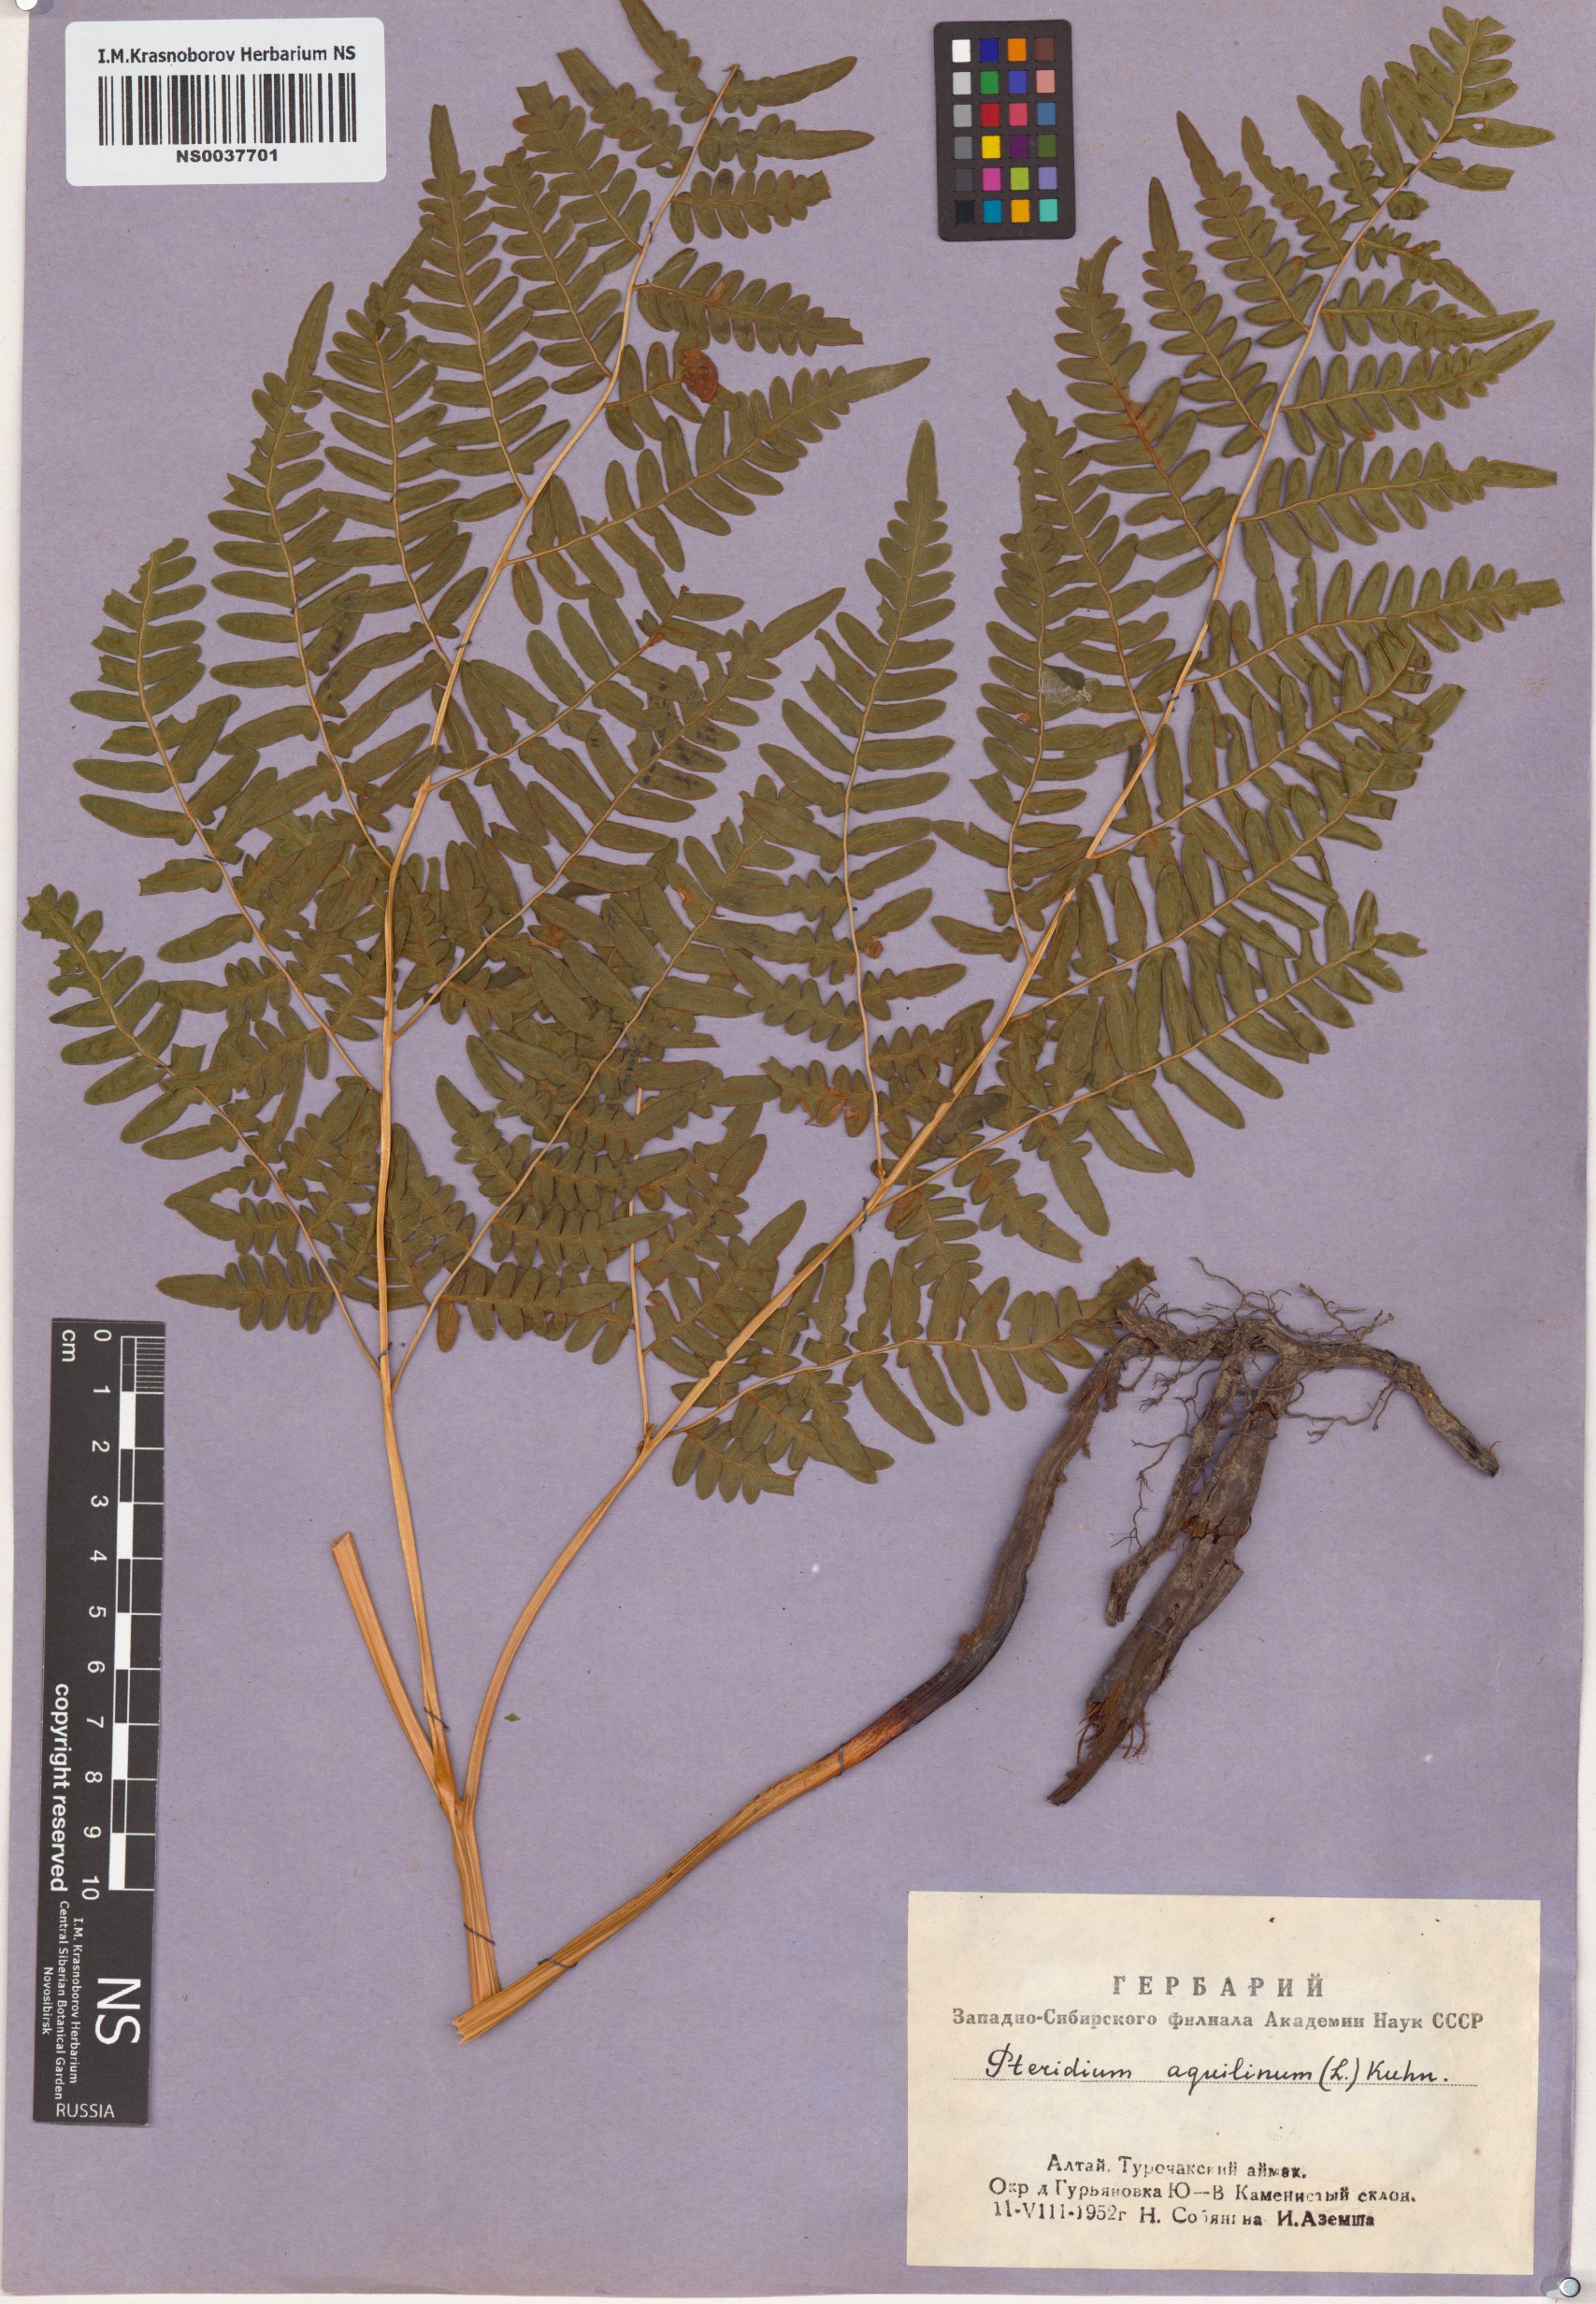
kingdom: Plantae
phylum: Tracheophyta
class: Polypodiopsida
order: Polypodiales
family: Dennstaedtiaceae
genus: Pteridium
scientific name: Pteridium aquilinum
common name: Bracken
